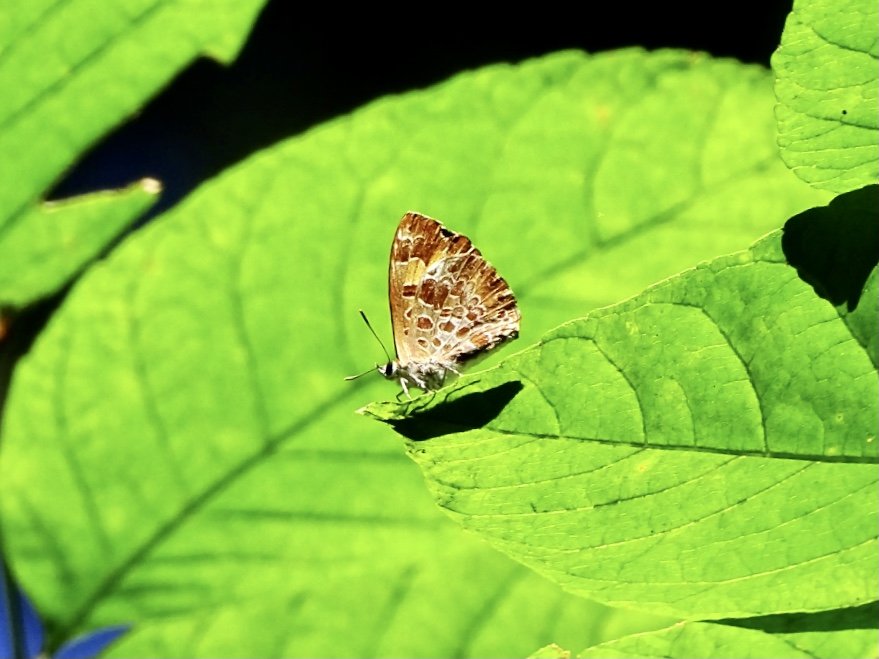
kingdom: Animalia
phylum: Arthropoda
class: Insecta
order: Lepidoptera
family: Lycaenidae
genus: Feniseca
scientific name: Feniseca tarquinius
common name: Harvester
